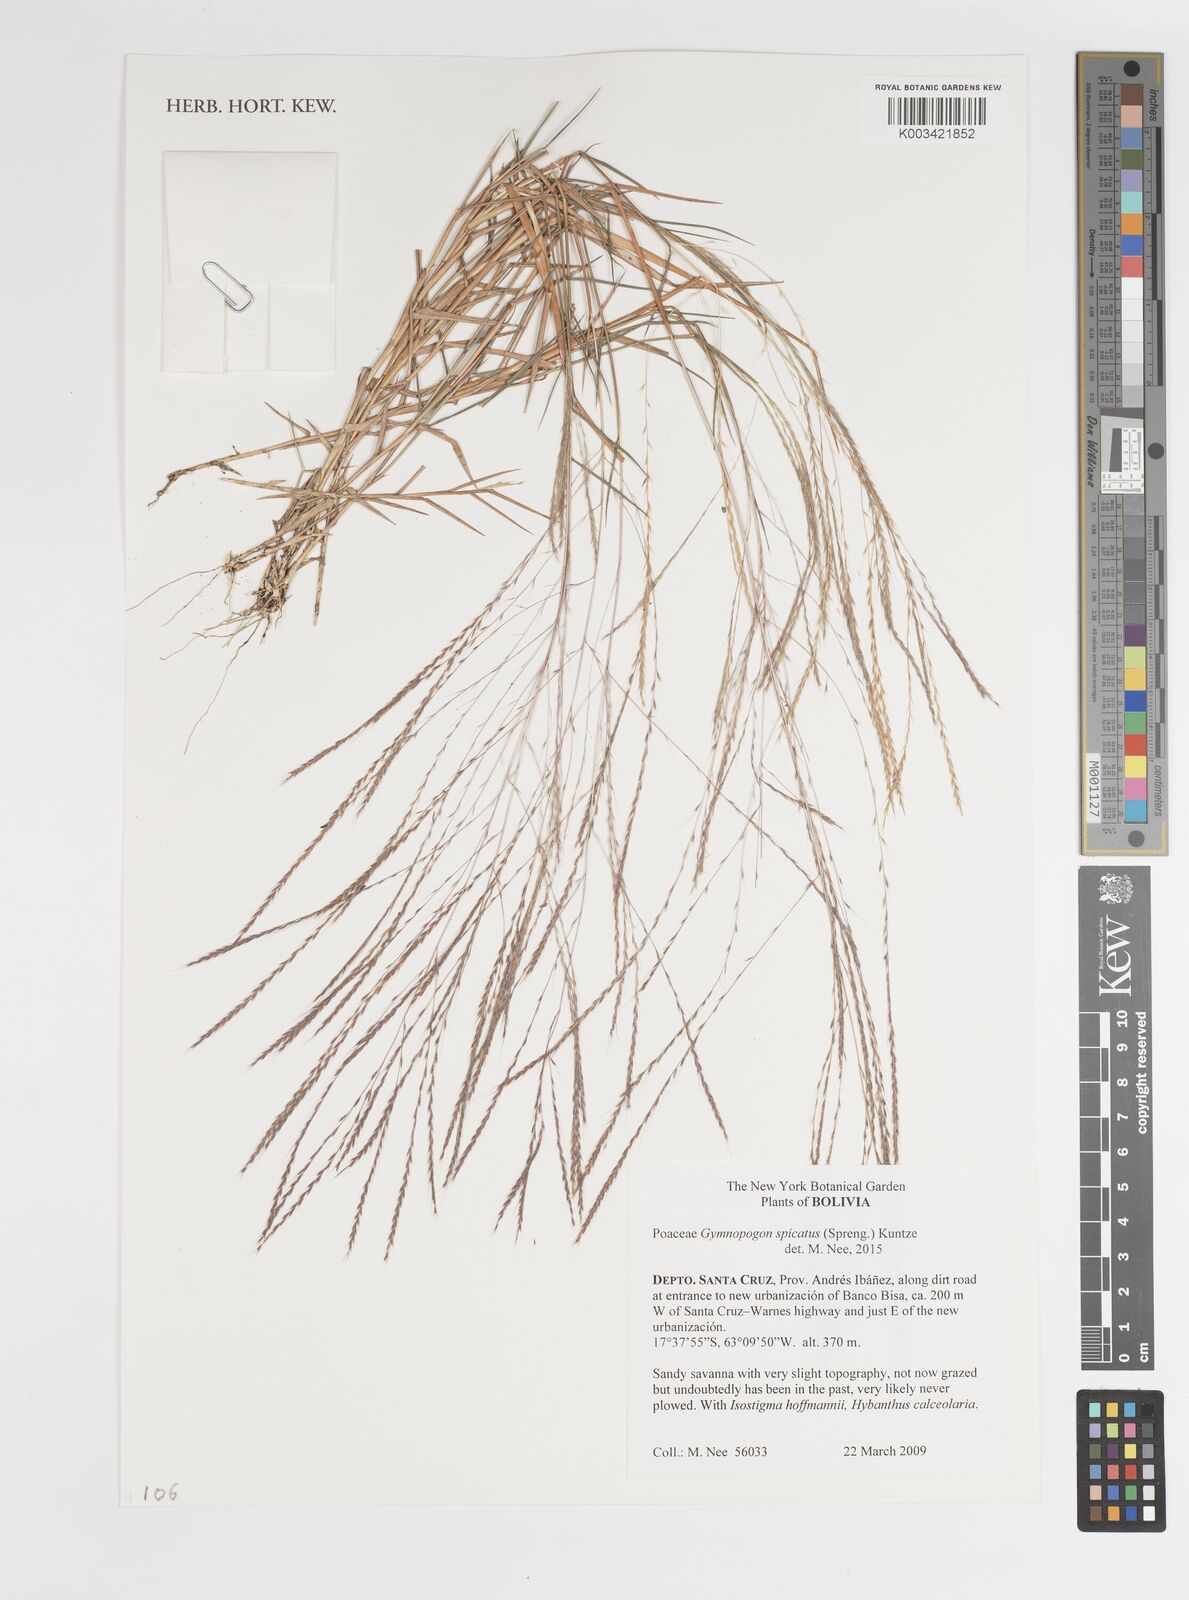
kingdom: Plantae
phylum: Tracheophyta
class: Liliopsida
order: Poales
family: Poaceae
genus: Gymnopogon
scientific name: Gymnopogon spicatus
